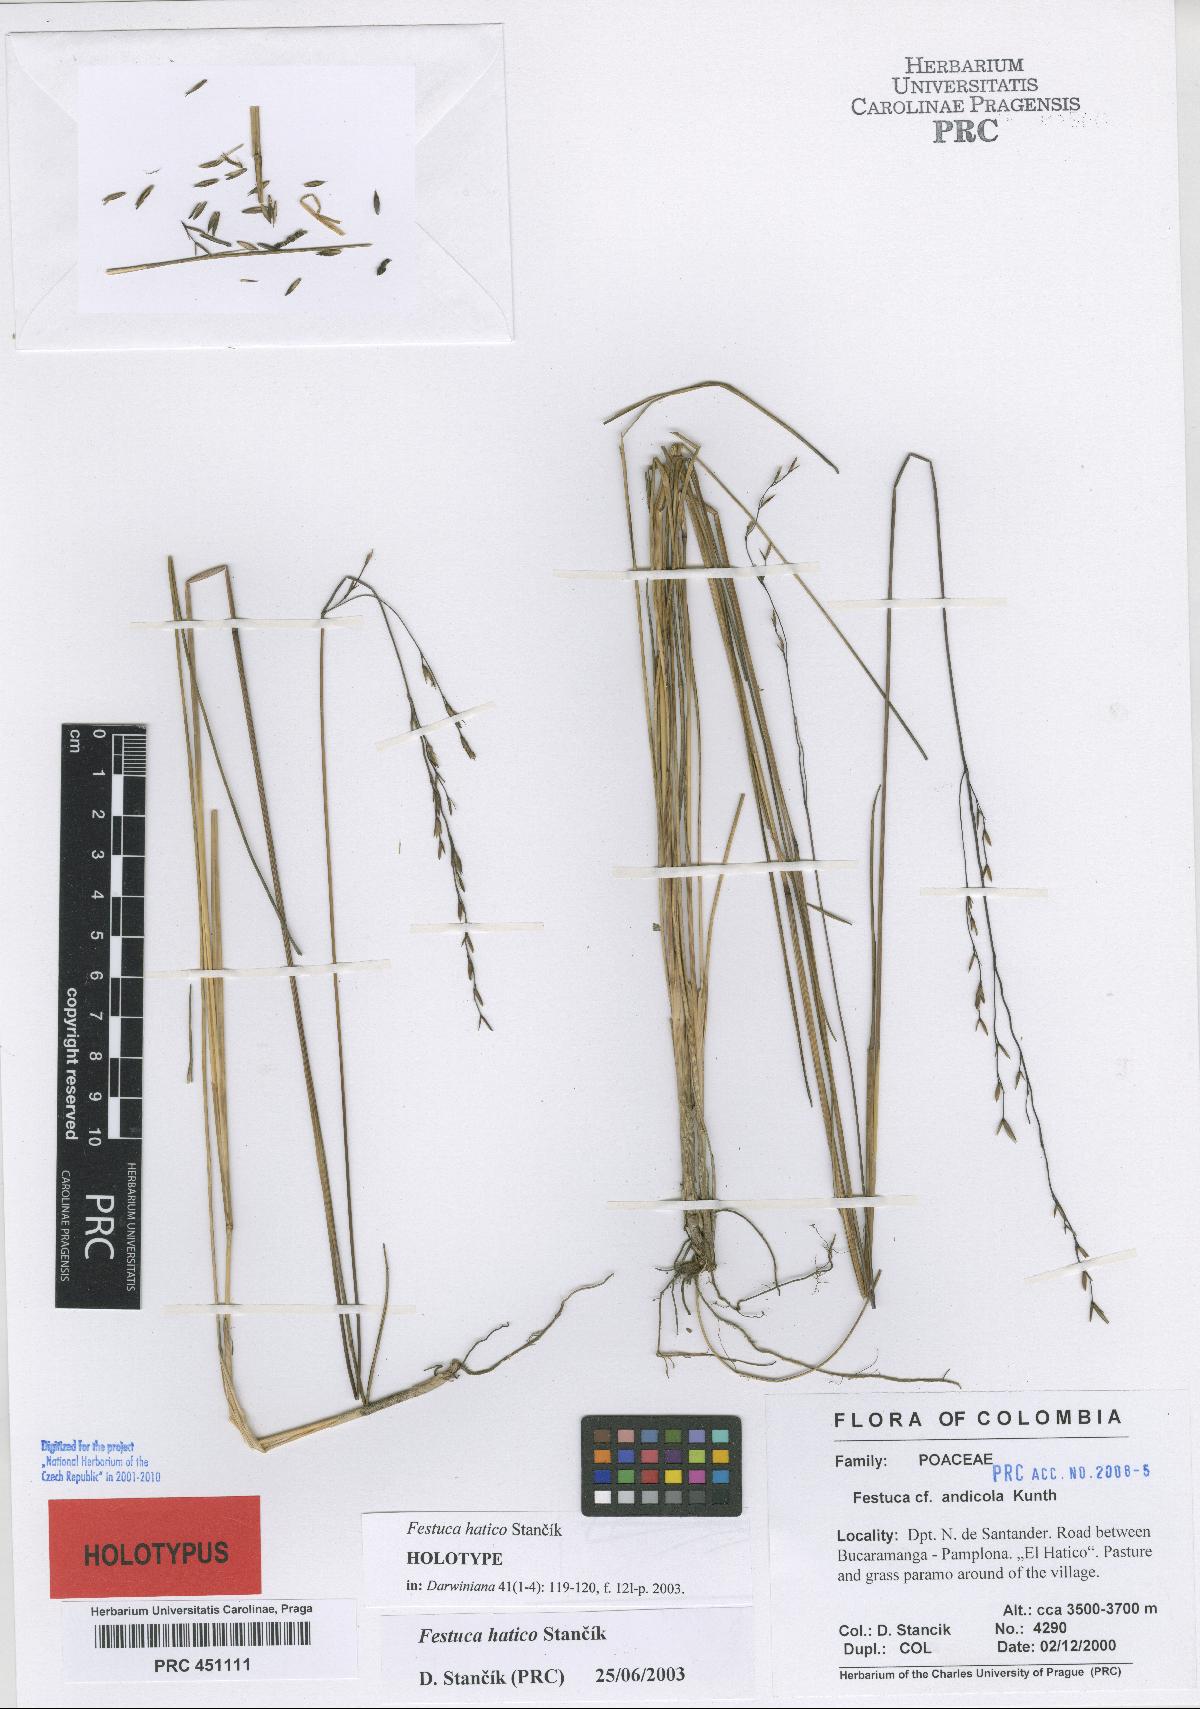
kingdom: Plantae
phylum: Tracheophyta
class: Liliopsida
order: Poales
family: Poaceae
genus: Festuca
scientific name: Festuca hatico
